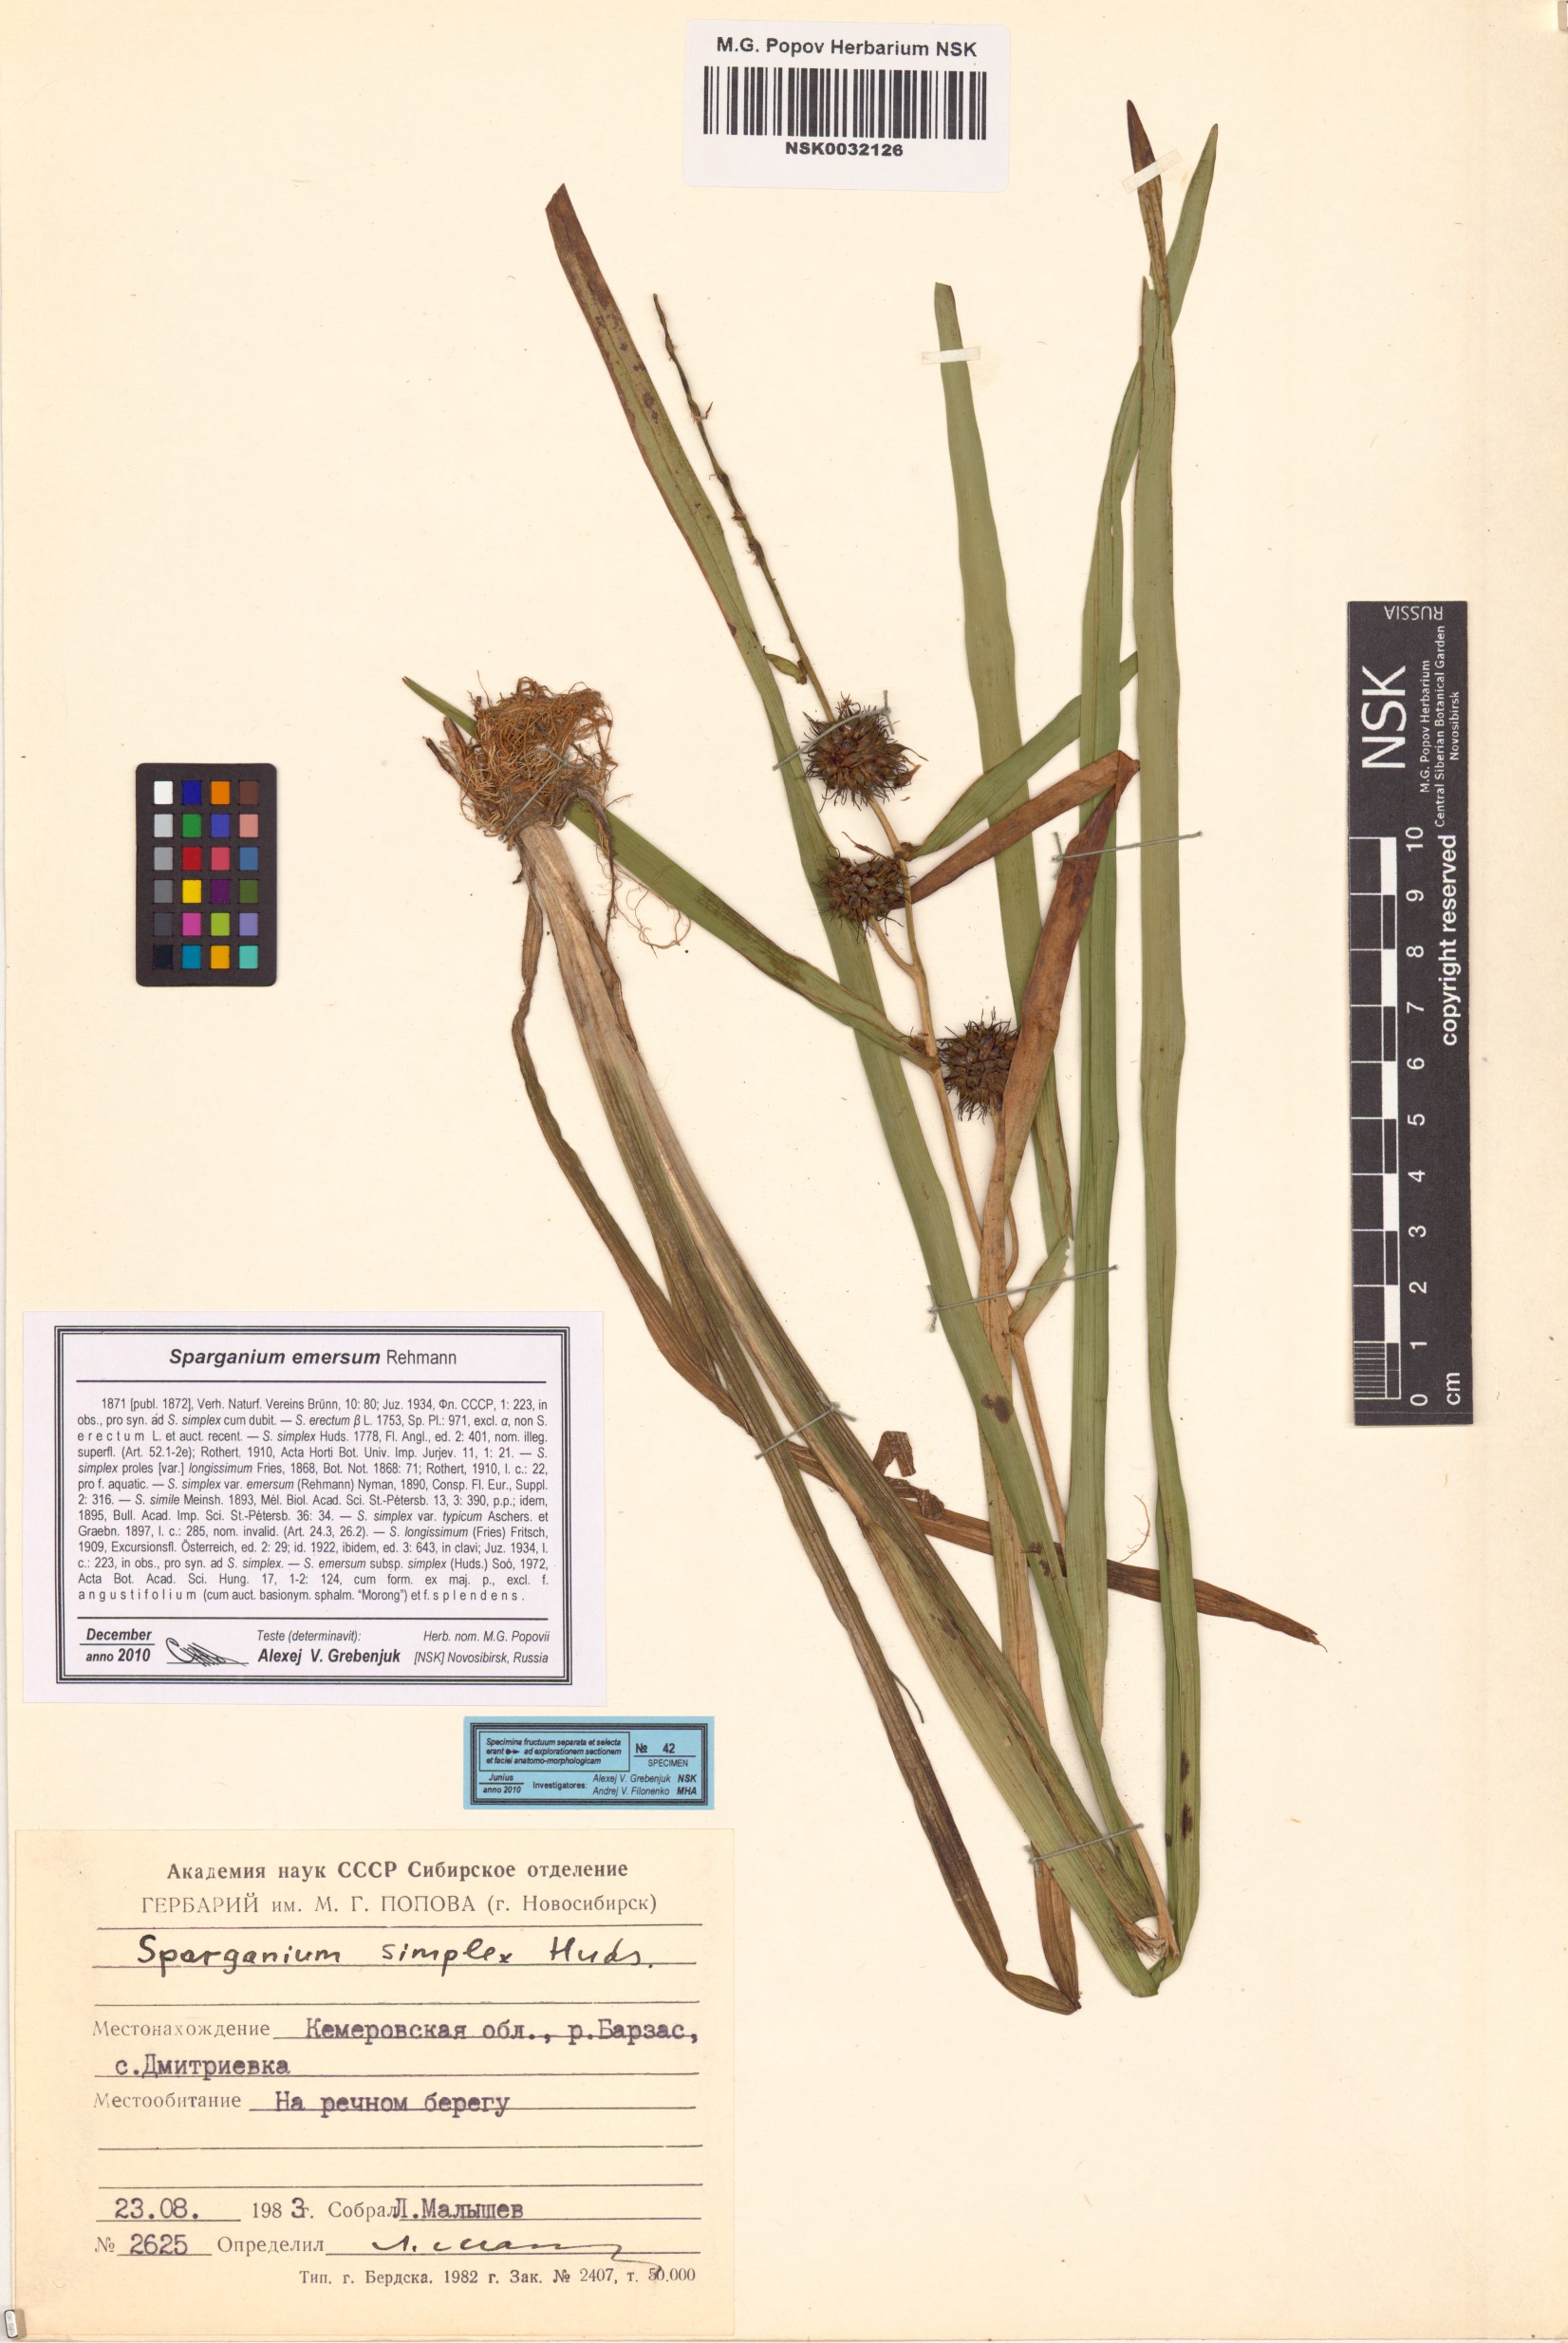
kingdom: Plantae
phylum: Tracheophyta
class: Liliopsida
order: Poales
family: Typhaceae
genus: Sparganium
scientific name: Sparganium emersum
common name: Unbranched bur-reed
